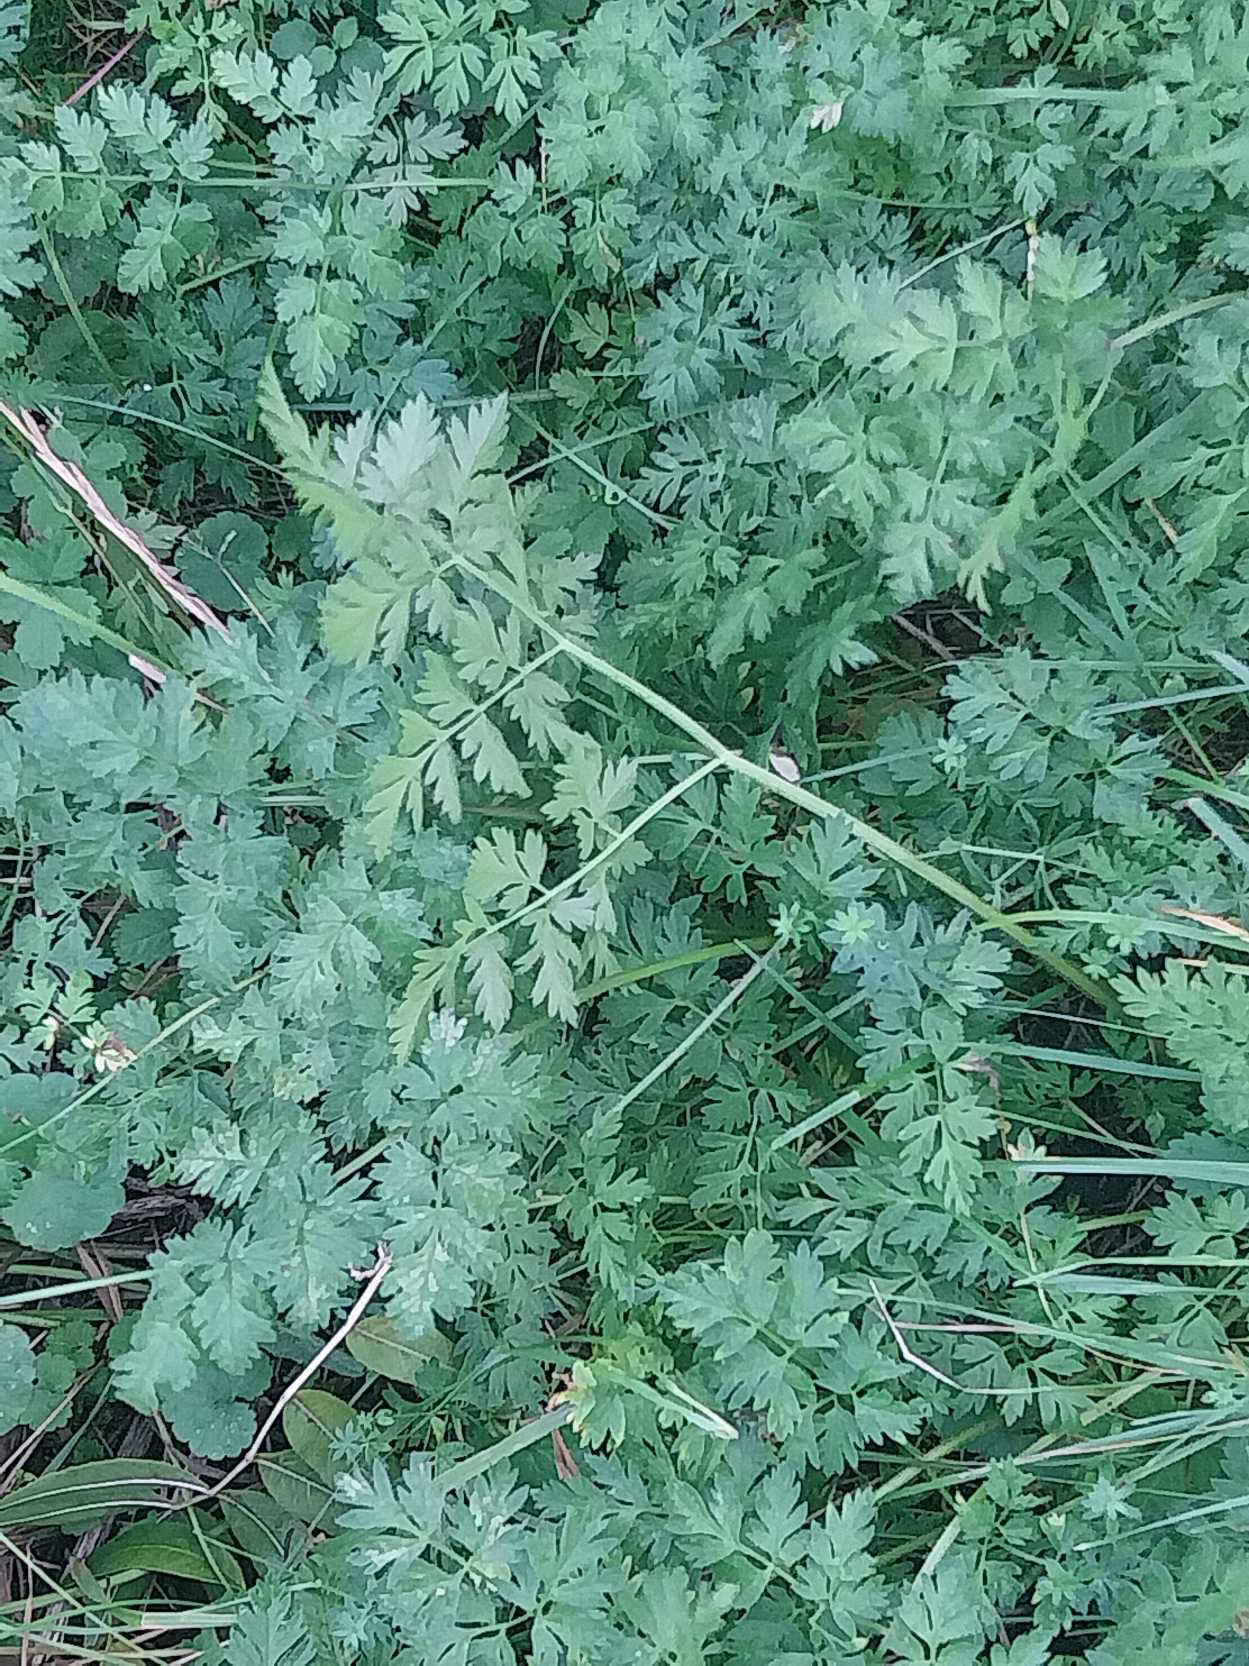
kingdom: Plantae
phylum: Tracheophyta
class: Magnoliopsida
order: Apiales
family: Apiaceae
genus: Anthriscus
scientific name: Anthriscus sylvestris
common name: Vild kørvel
